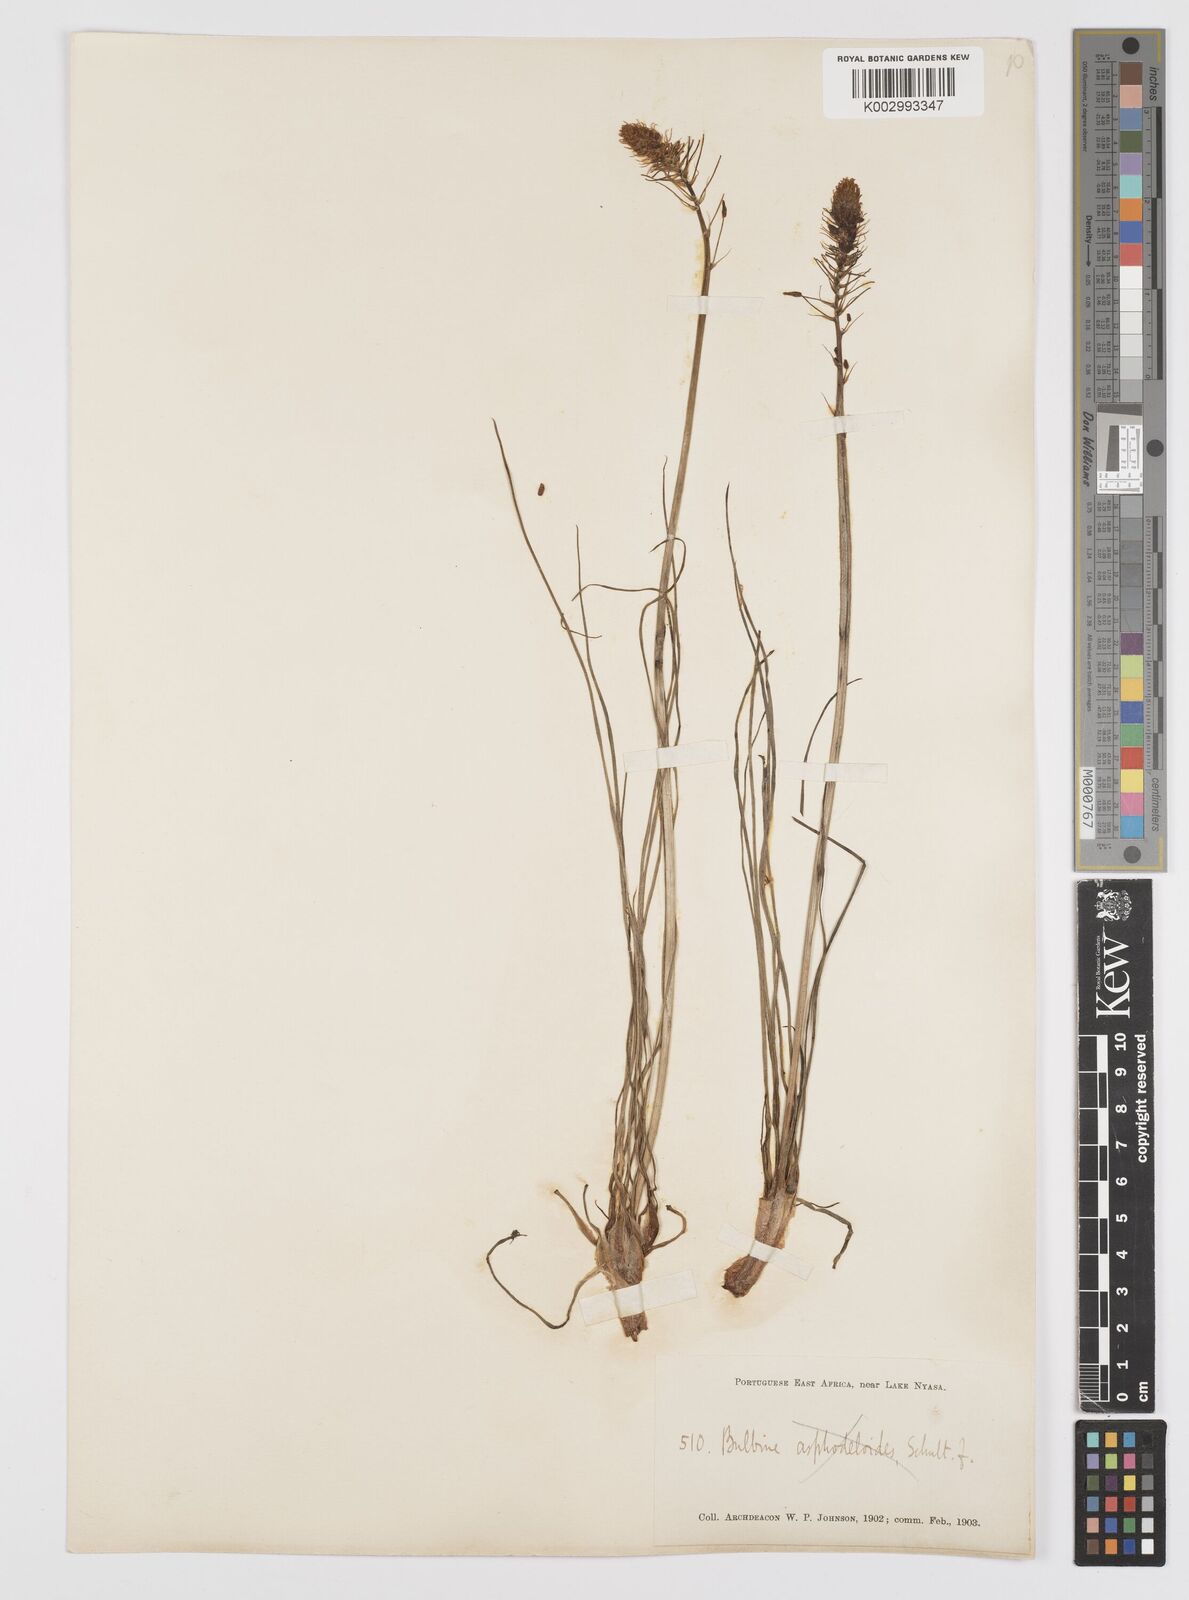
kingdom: Plantae
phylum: Tracheophyta
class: Liliopsida
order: Asparagales
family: Asphodelaceae
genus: Bulbine
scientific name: Bulbine abyssinica
